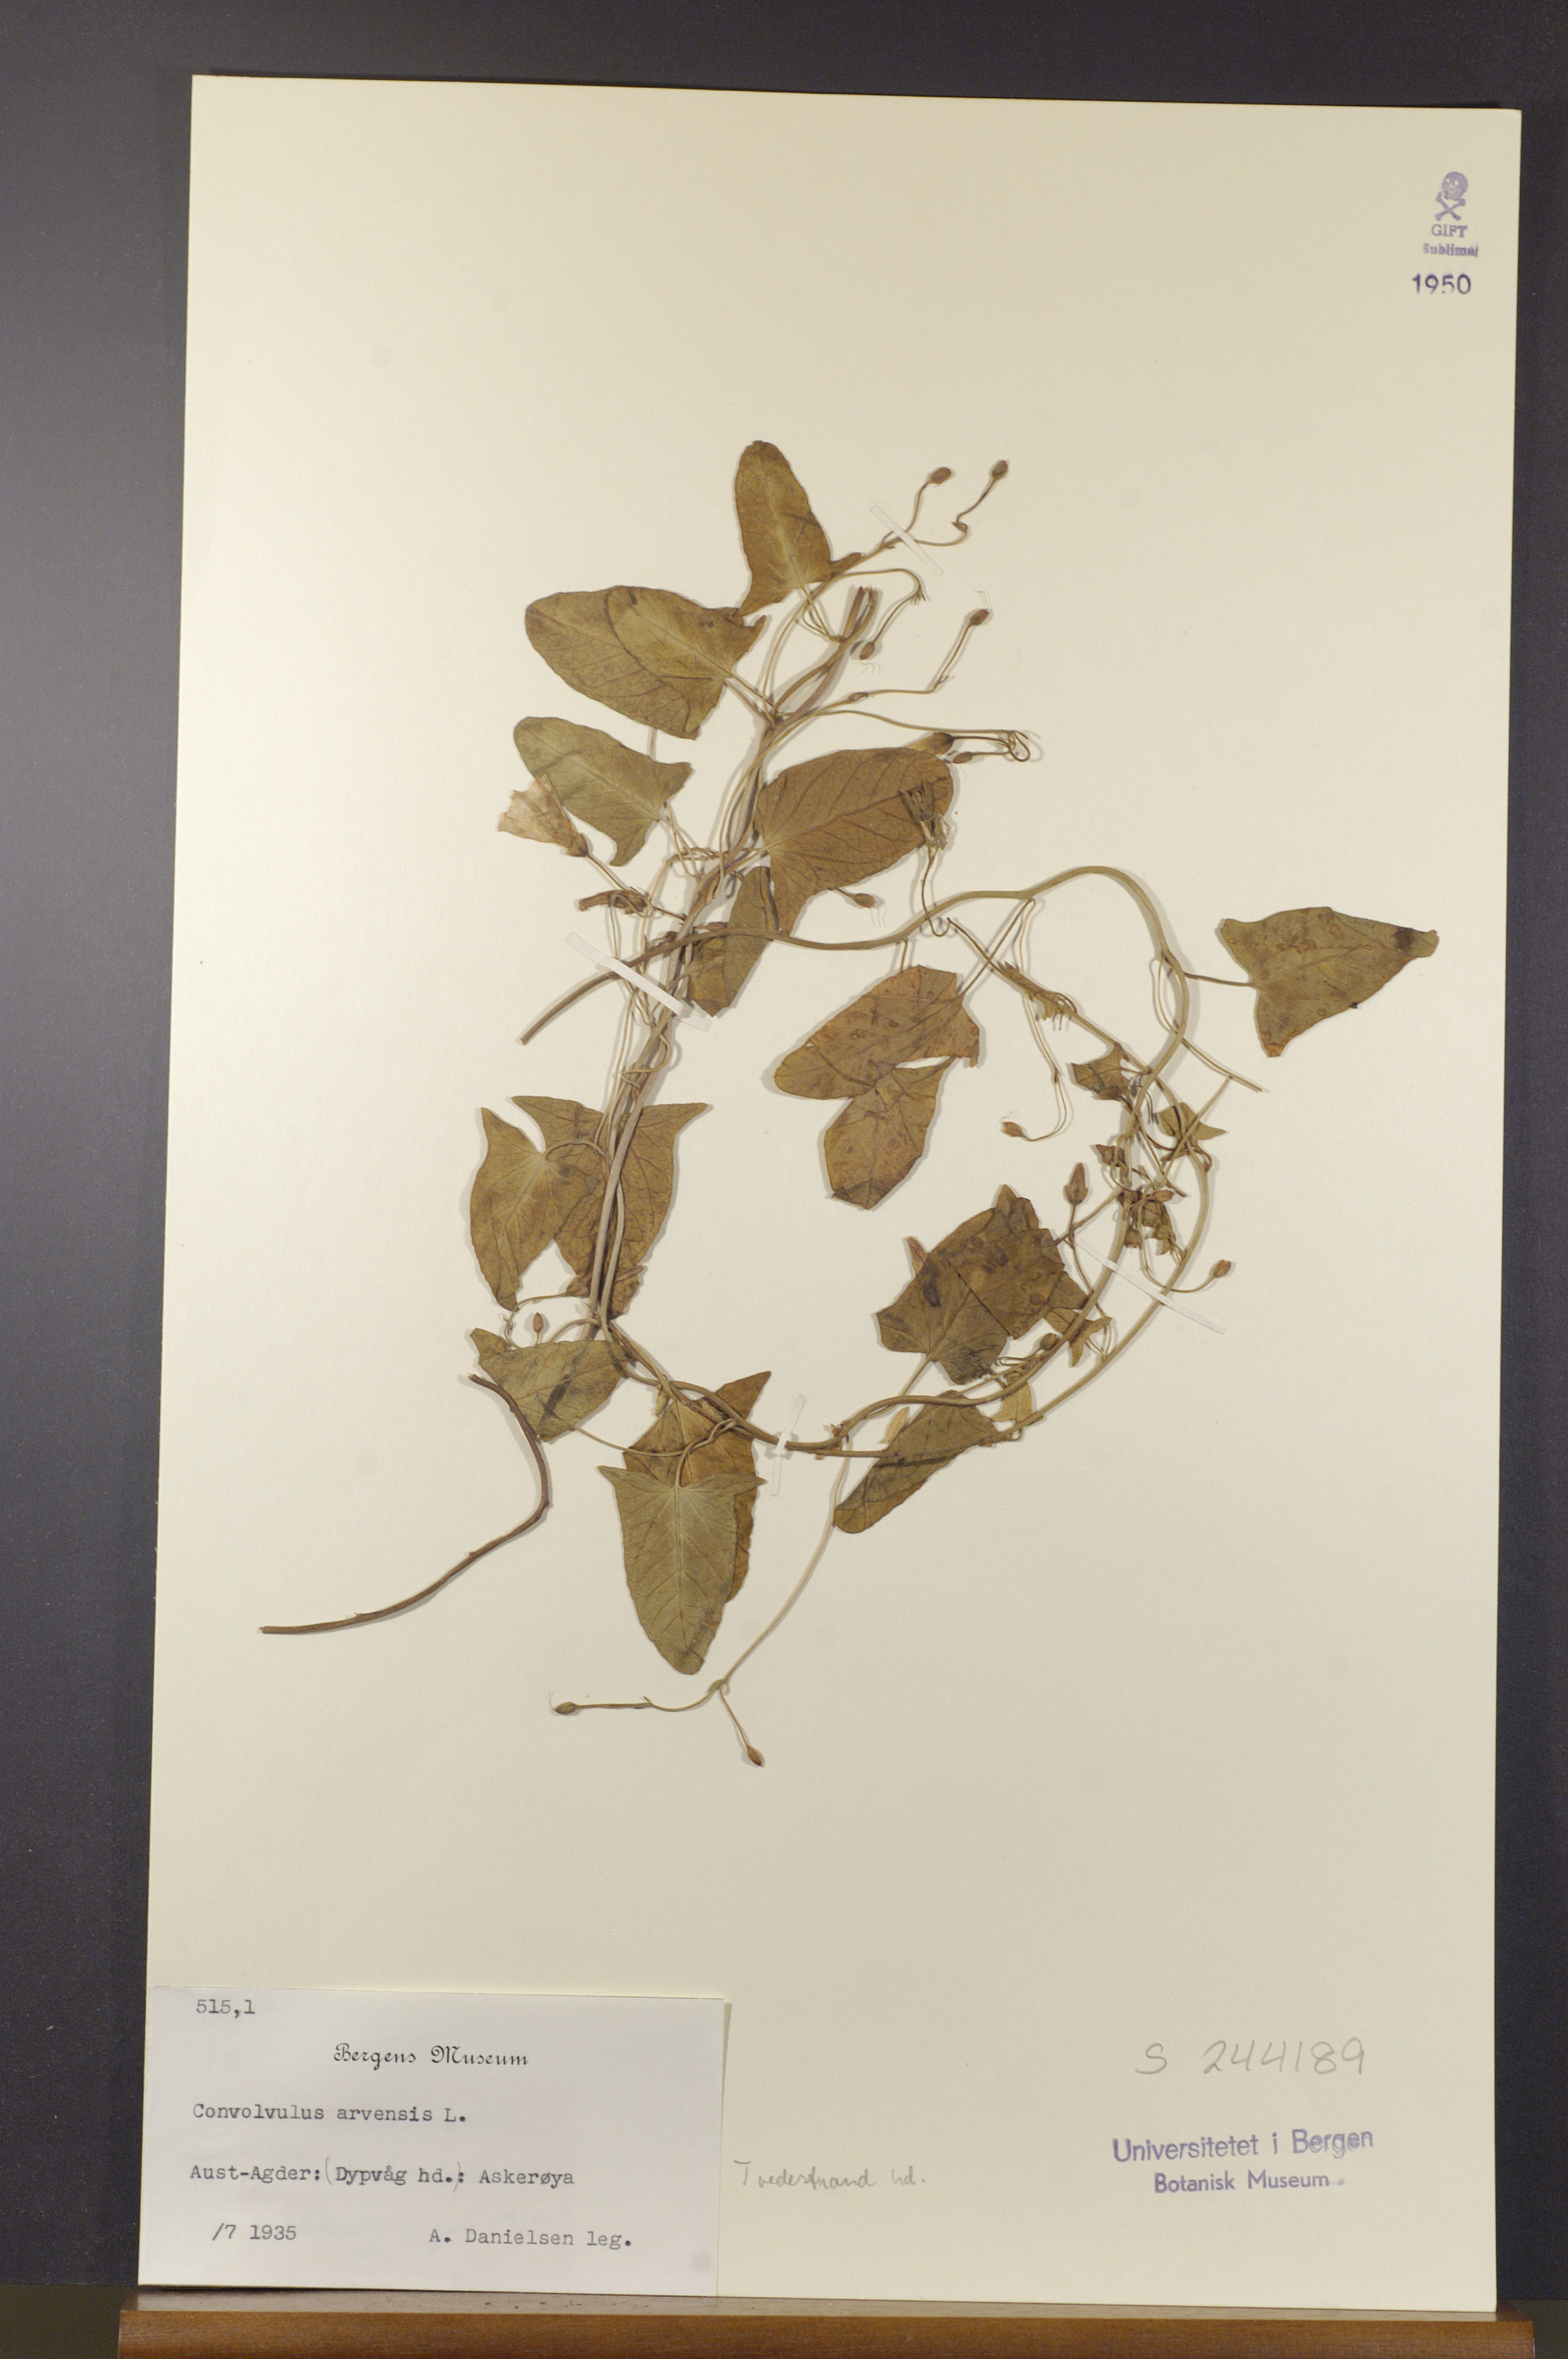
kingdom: Plantae
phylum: Tracheophyta
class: Magnoliopsida
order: Solanales
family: Convolvulaceae
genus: Convolvulus
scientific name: Convolvulus arvensis
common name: Field bindweed
